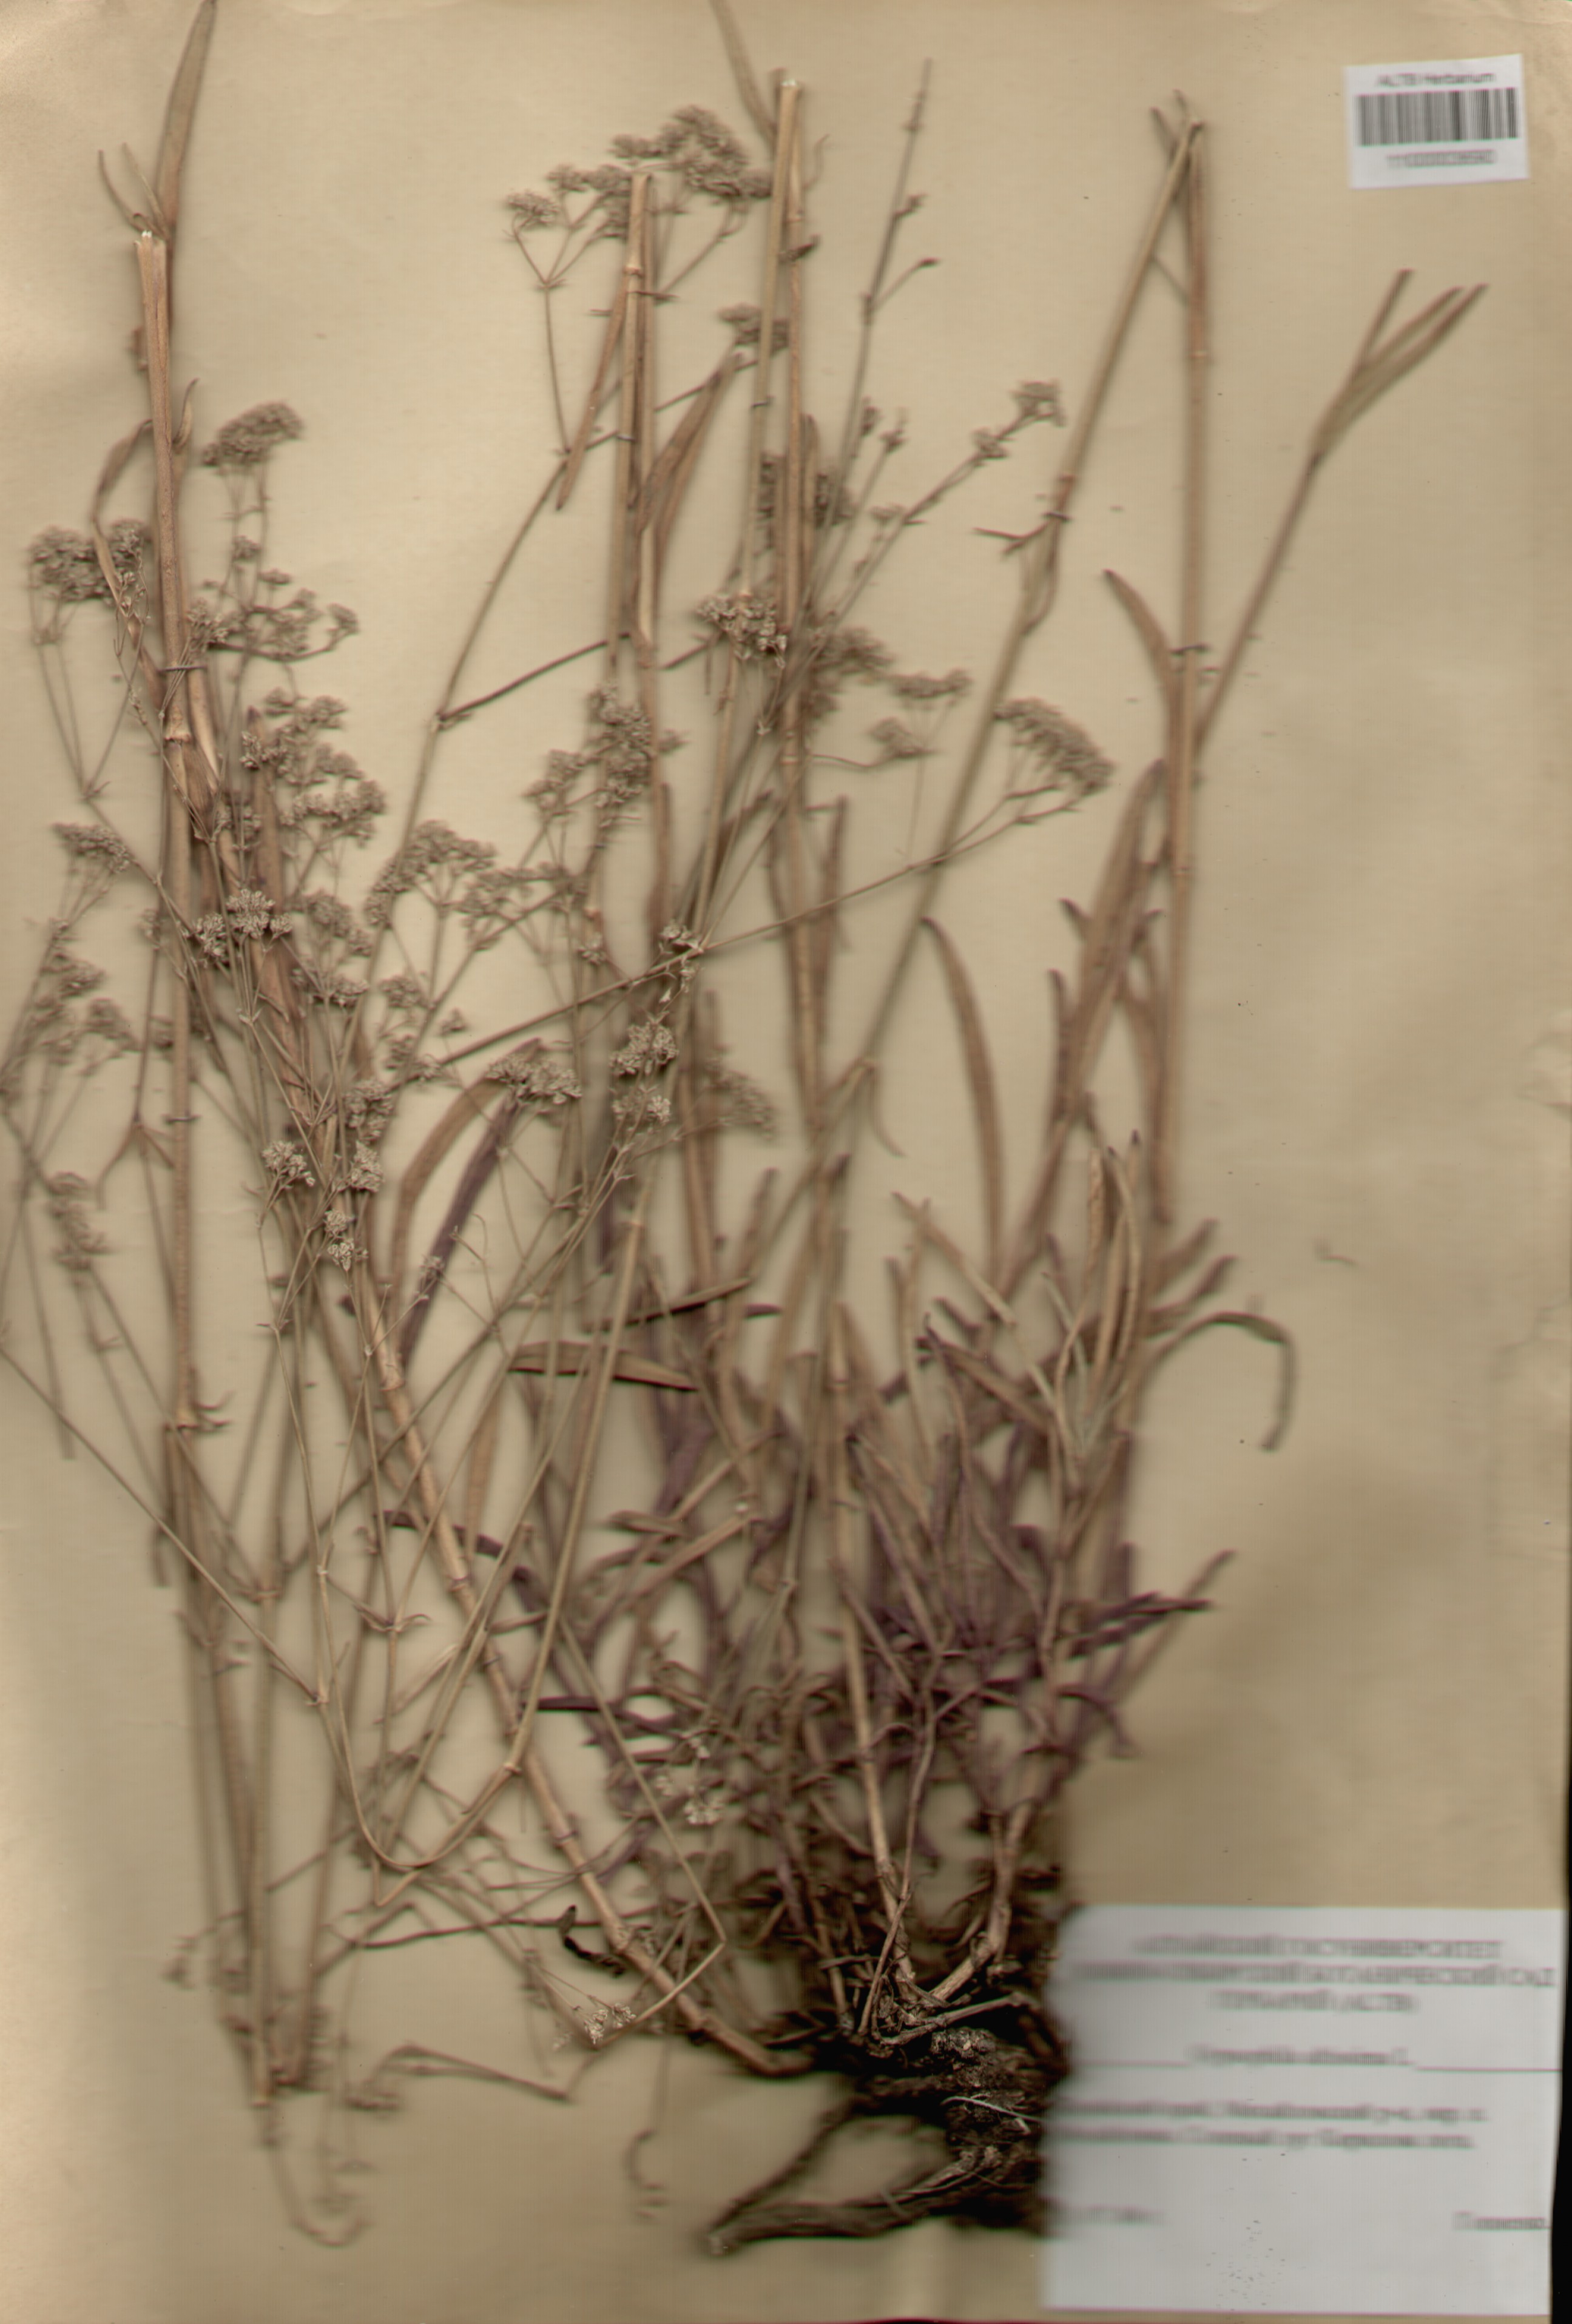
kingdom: Plantae
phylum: Tracheophyta
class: Magnoliopsida
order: Caryophyllales
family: Caryophyllaceae
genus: Gypsophila
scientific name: Gypsophila altissima
